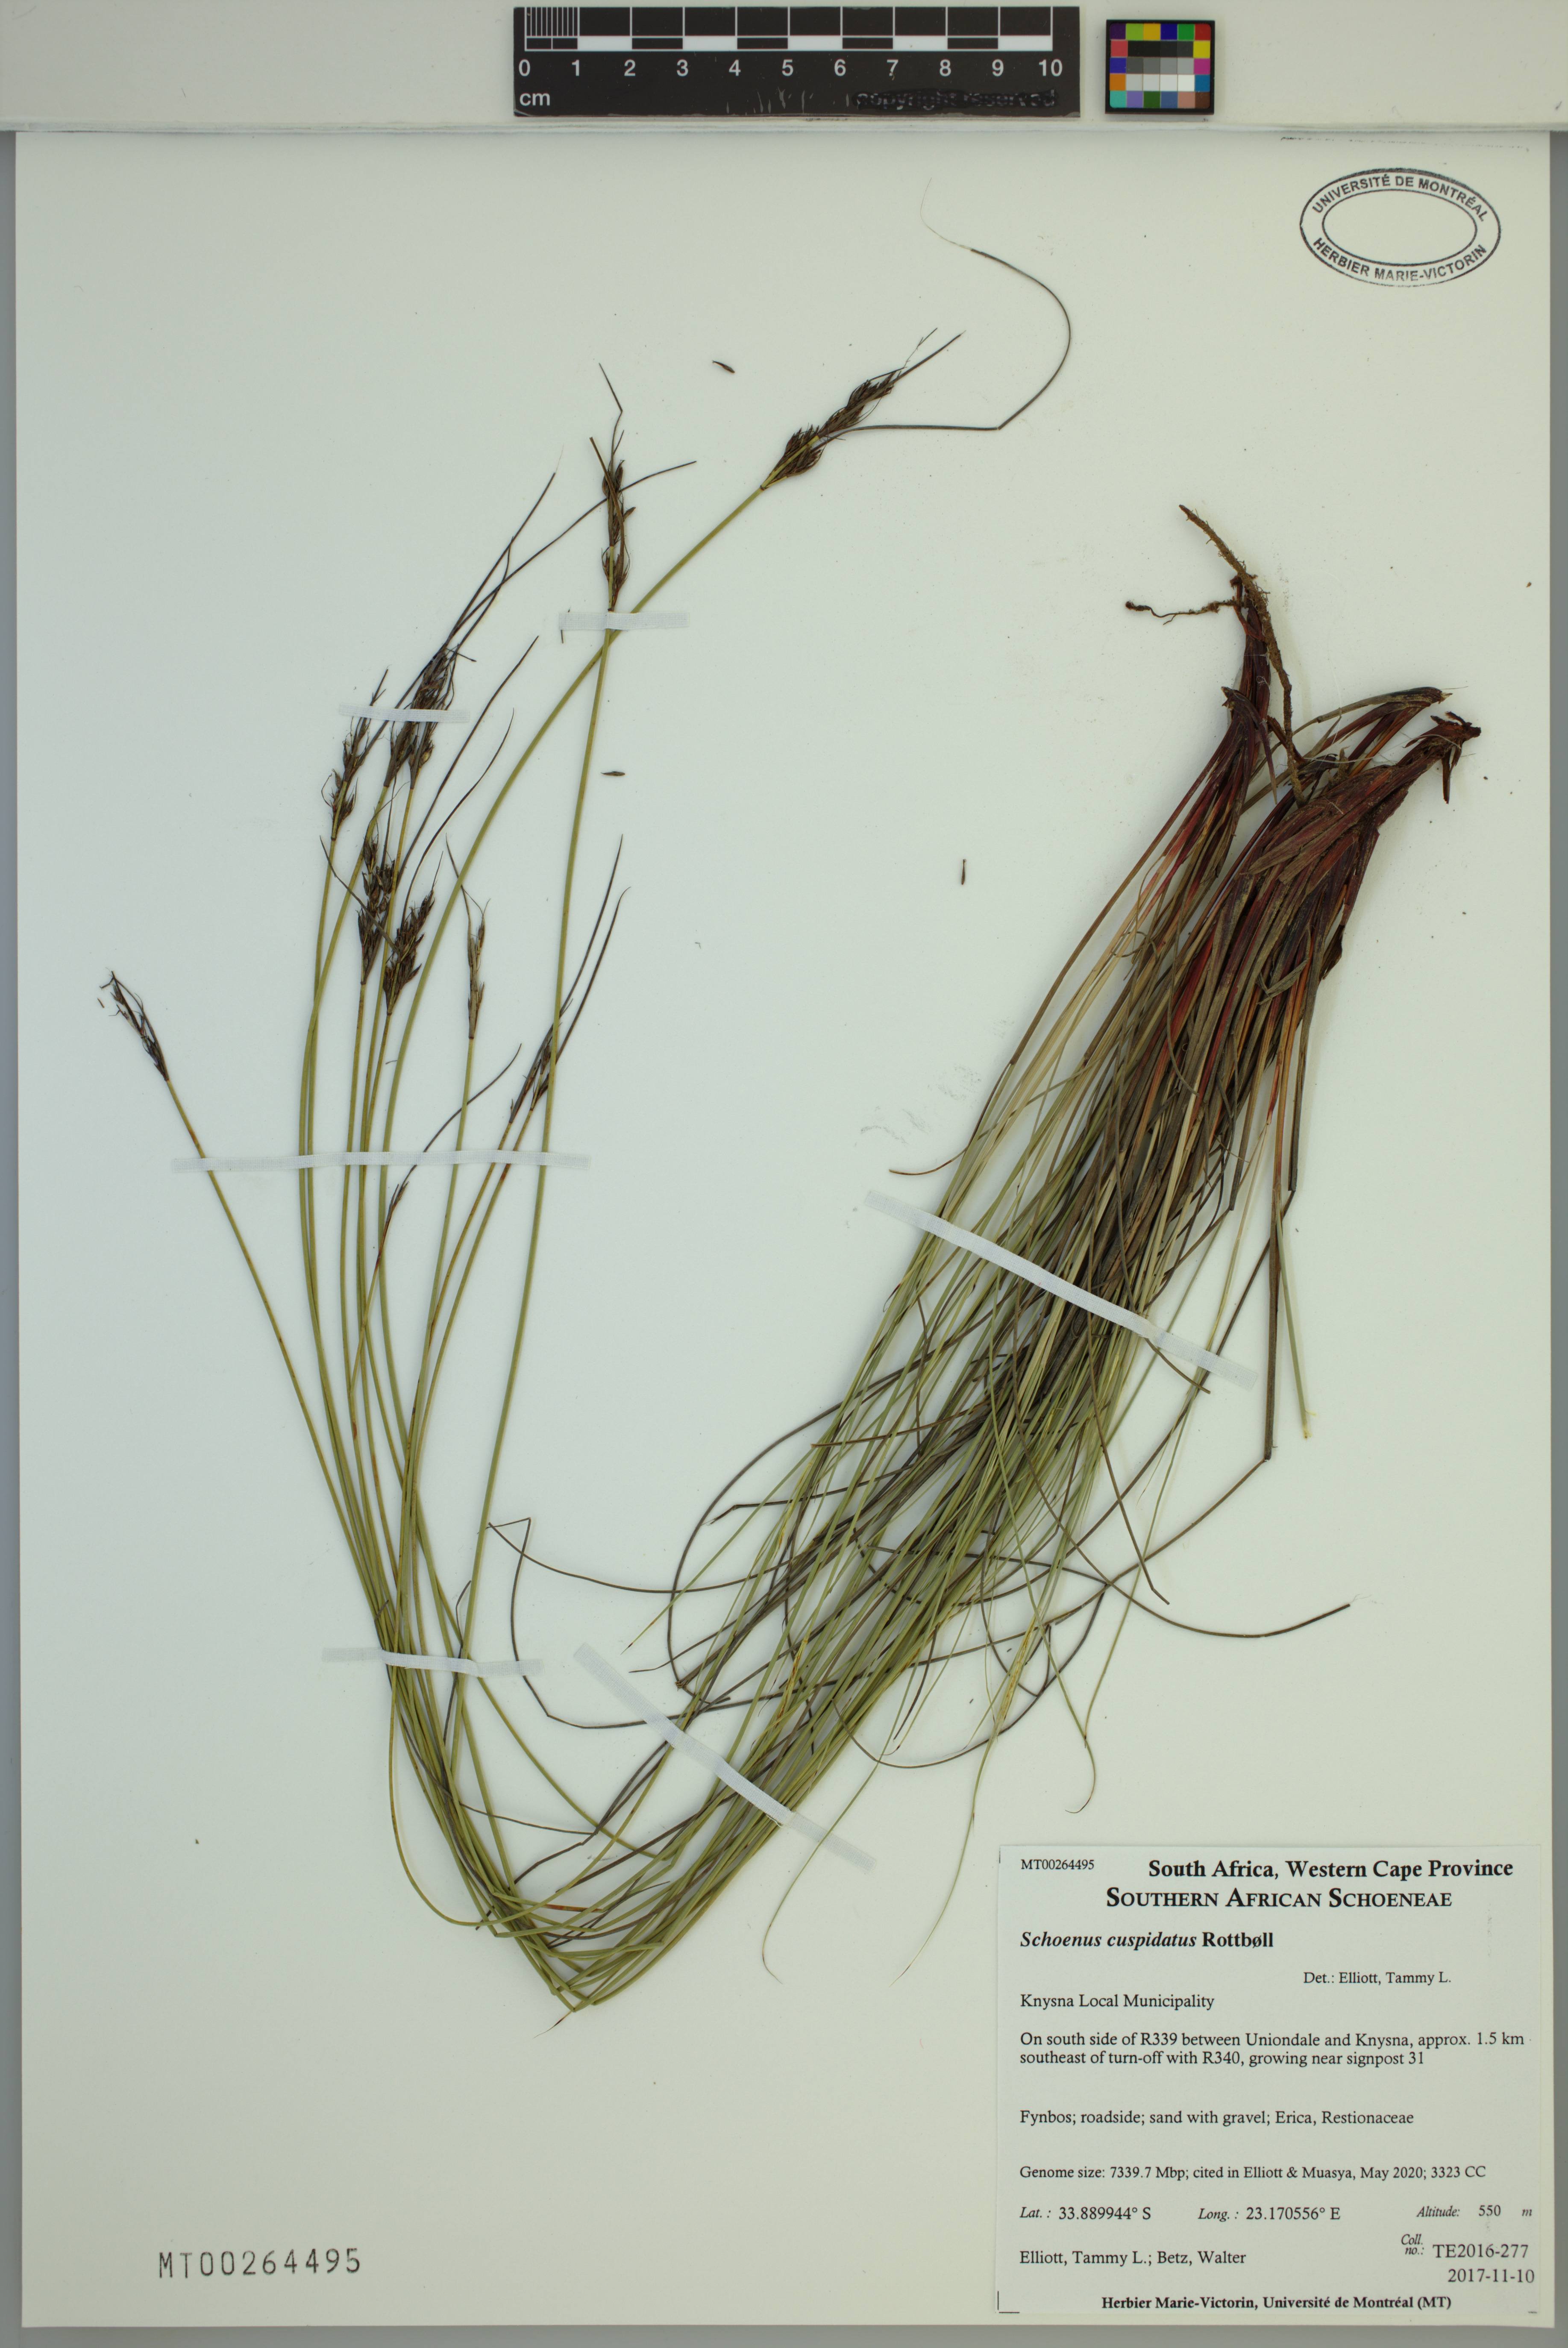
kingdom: Plantae
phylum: Tracheophyta
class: Liliopsida
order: Poales
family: Cyperaceae
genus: Schoenus
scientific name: Schoenus cuspidatus
